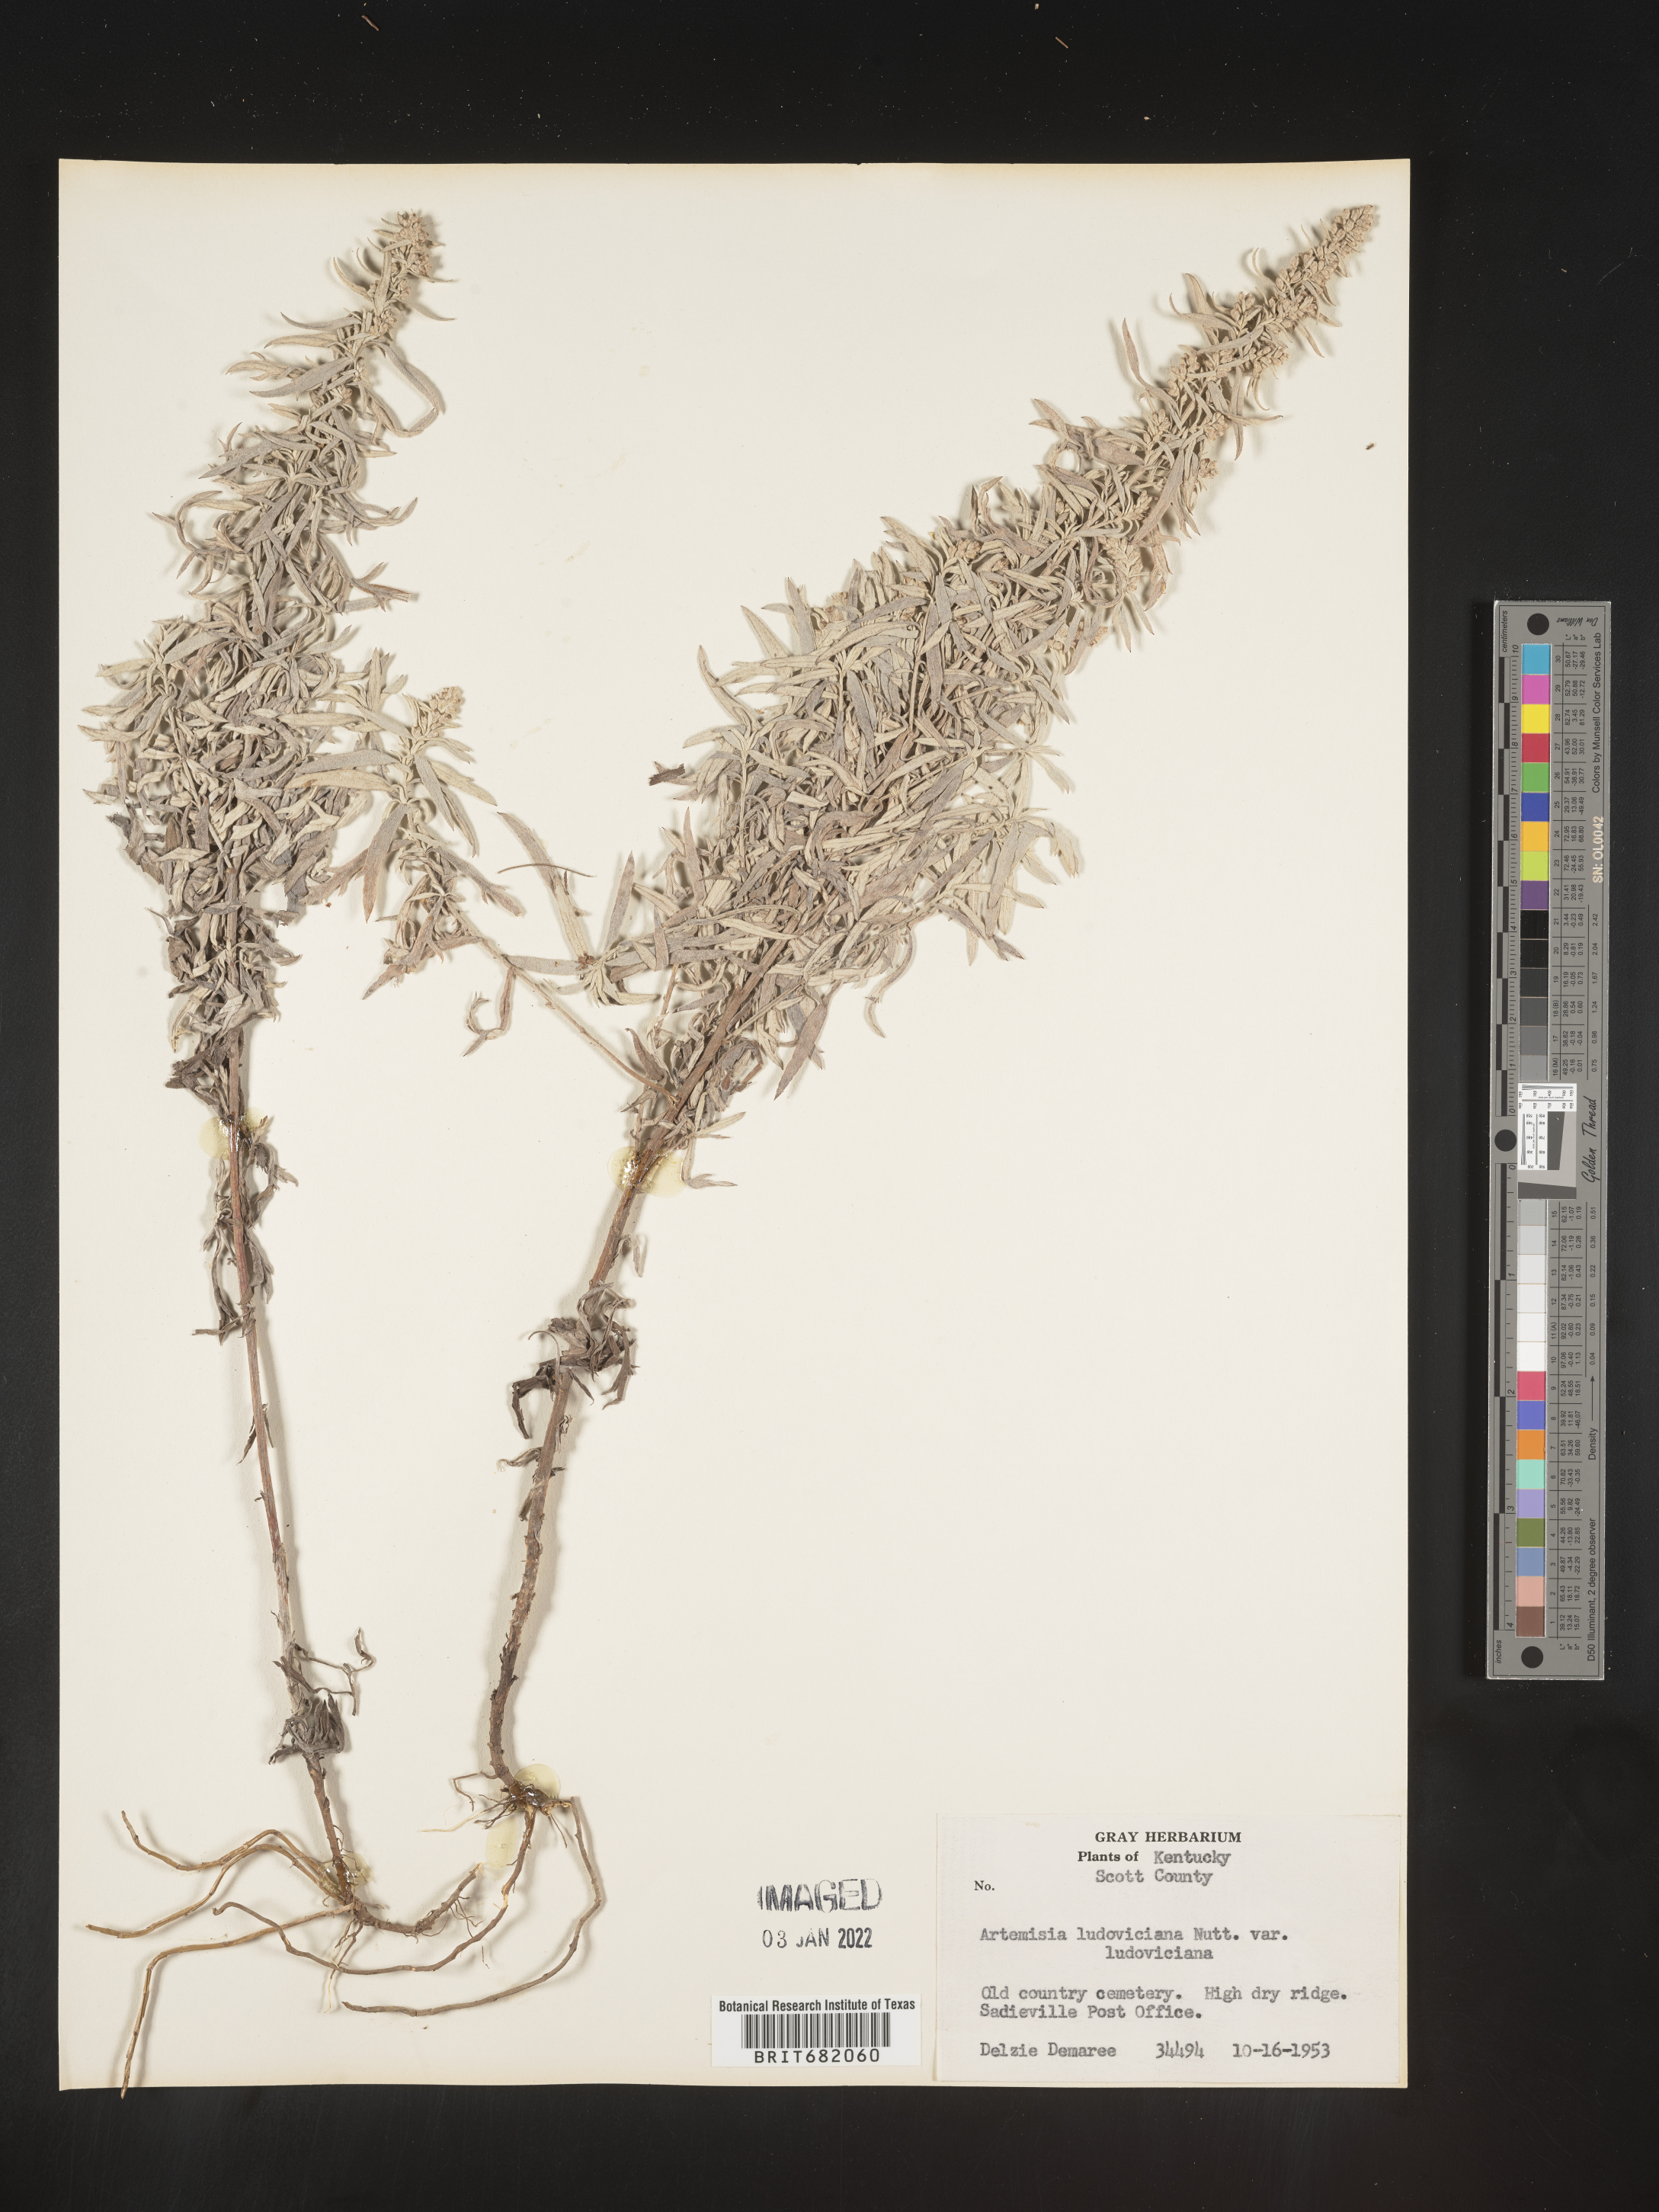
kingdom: Plantae
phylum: Tracheophyta
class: Magnoliopsida
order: Asterales
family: Asteraceae
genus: Artemisia
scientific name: Artemisia ludoviciana
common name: Western mugwort
